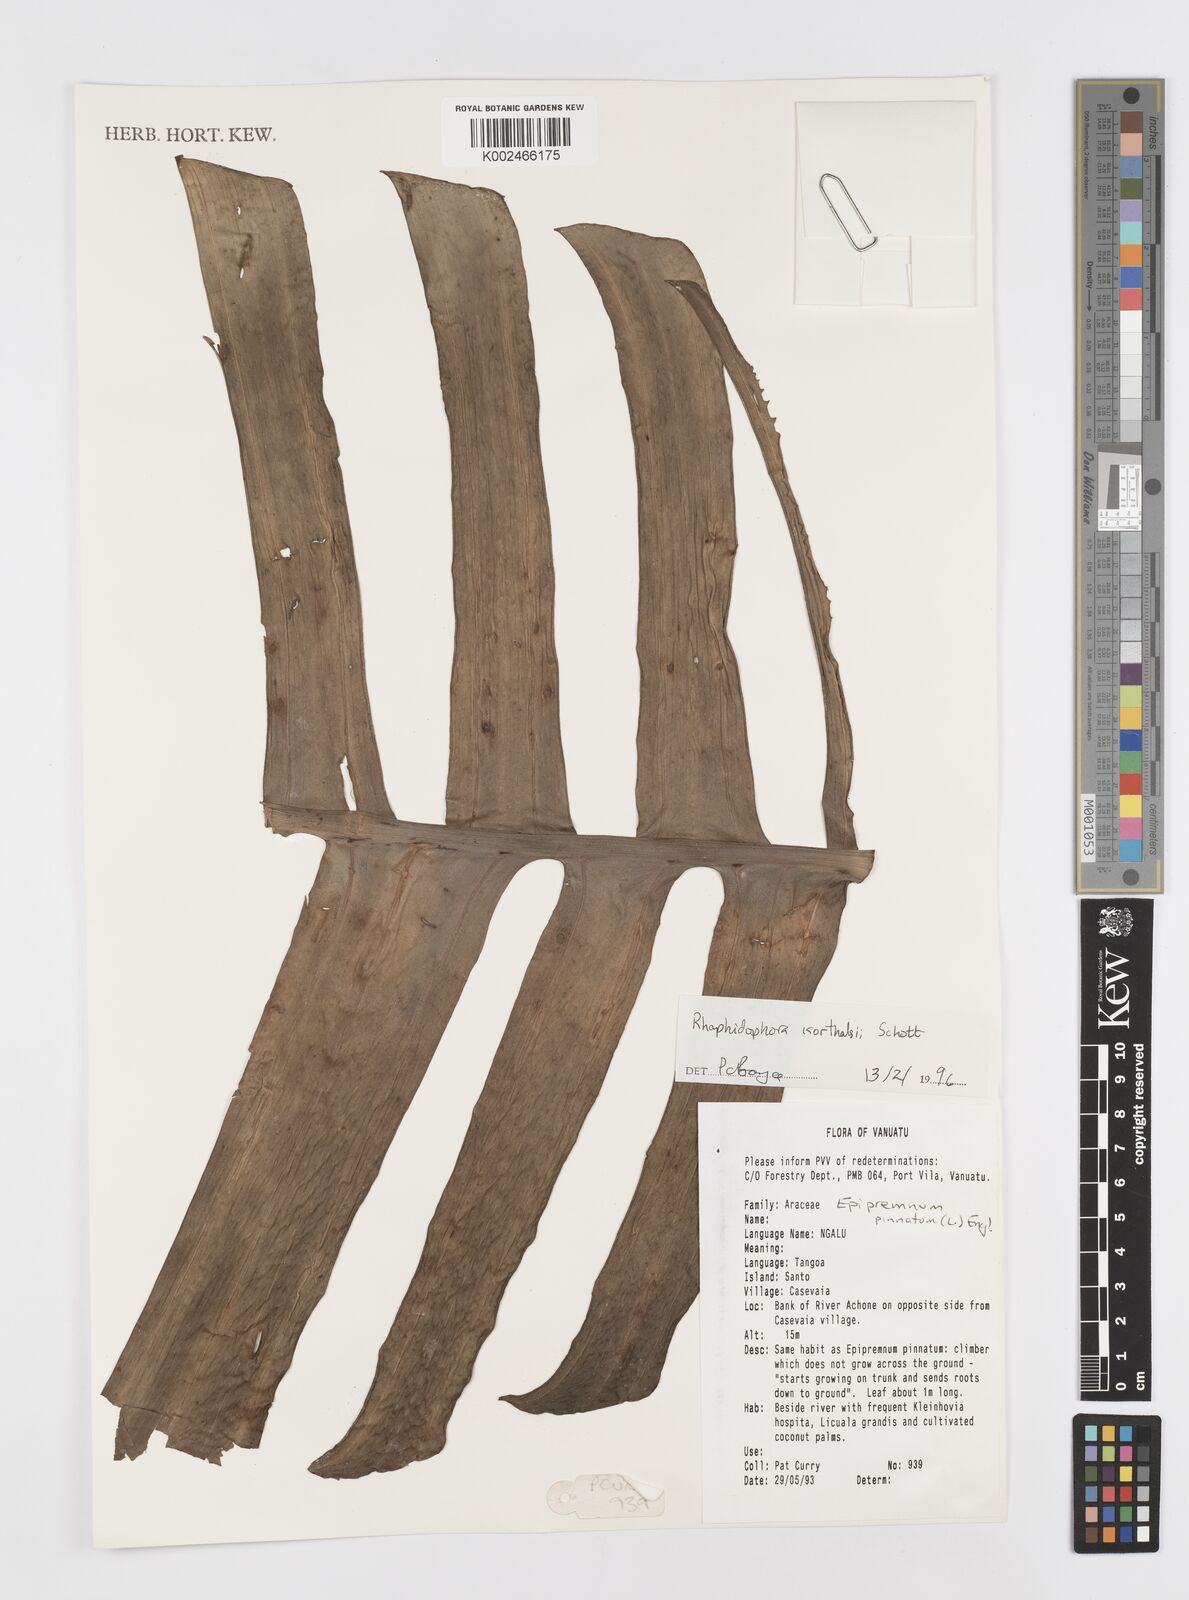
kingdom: Plantae
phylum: Tracheophyta
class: Liliopsida
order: Alismatales
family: Araceae
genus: Rhaphidophora
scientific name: Rhaphidophora korthalsii
